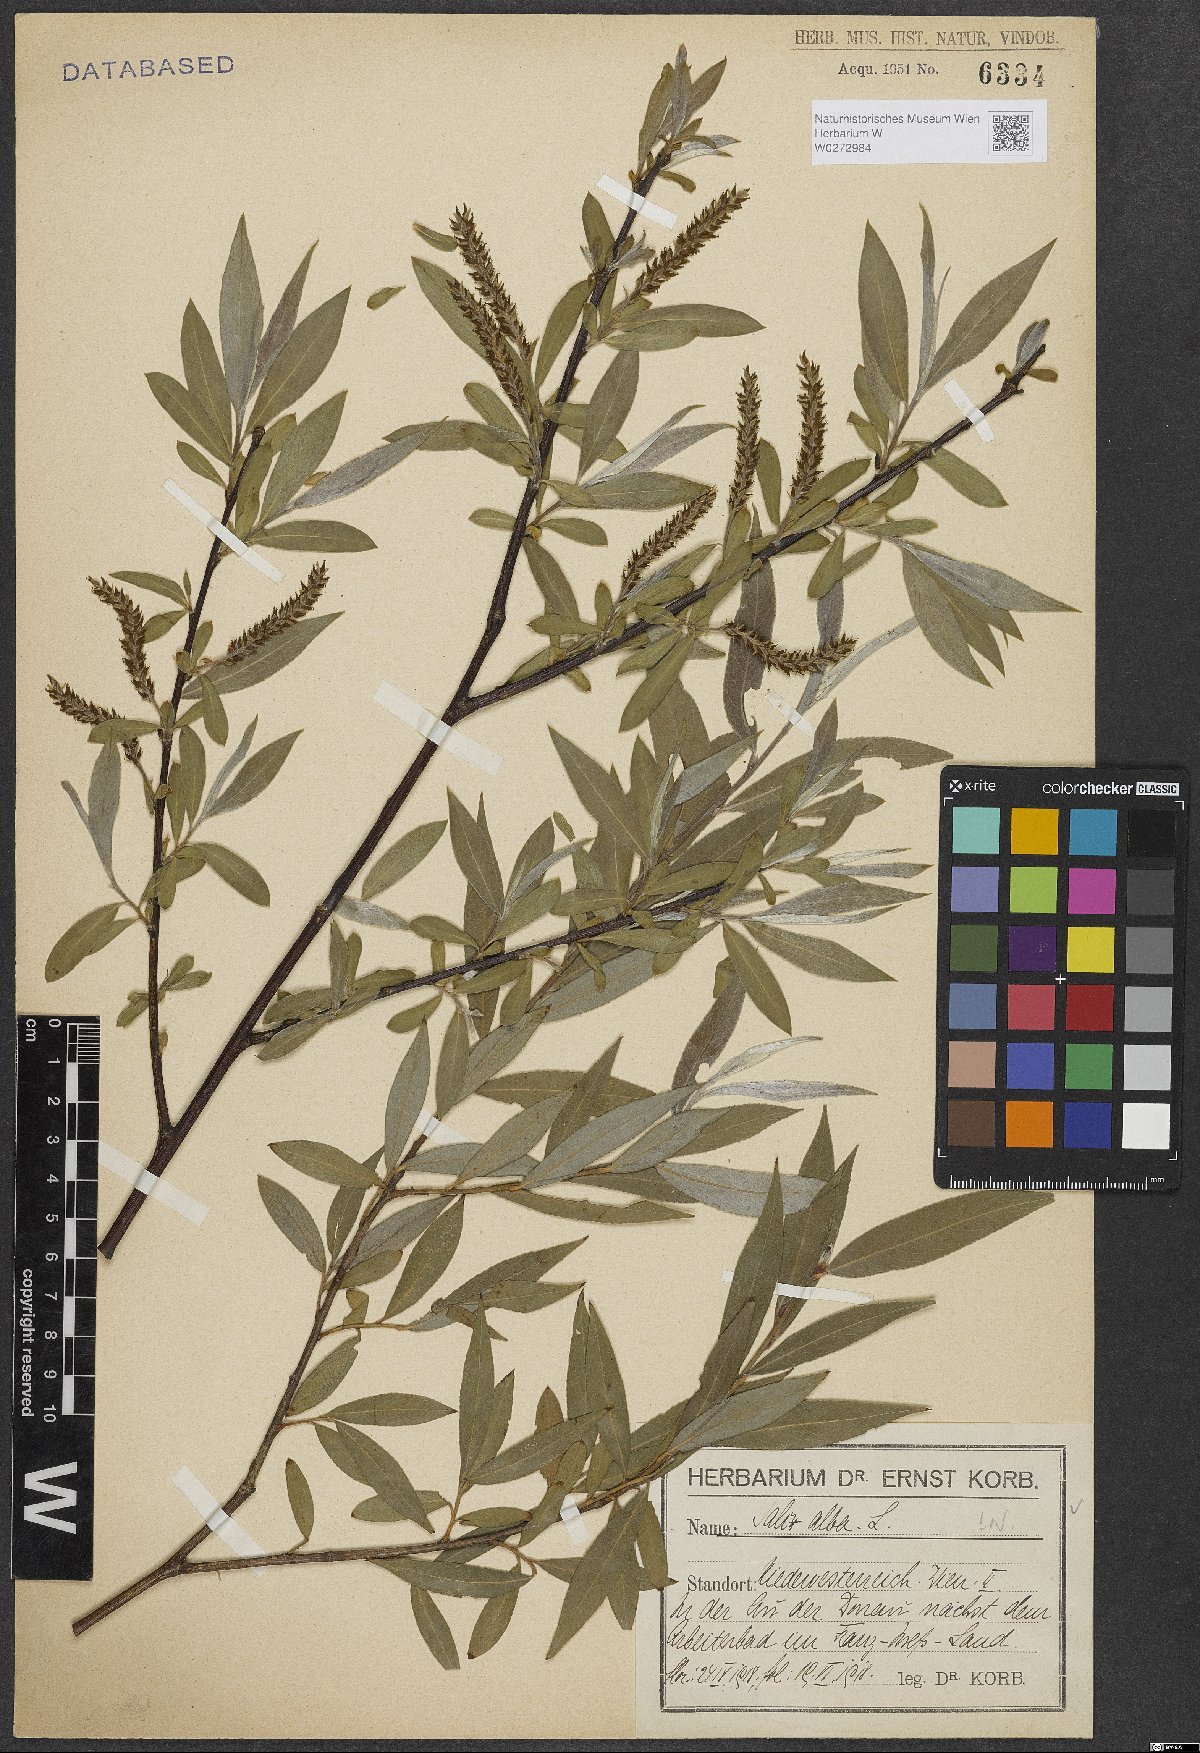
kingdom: Plantae
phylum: Tracheophyta
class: Magnoliopsida
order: Malpighiales
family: Salicaceae
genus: Salix
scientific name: Salix alba
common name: White willow
